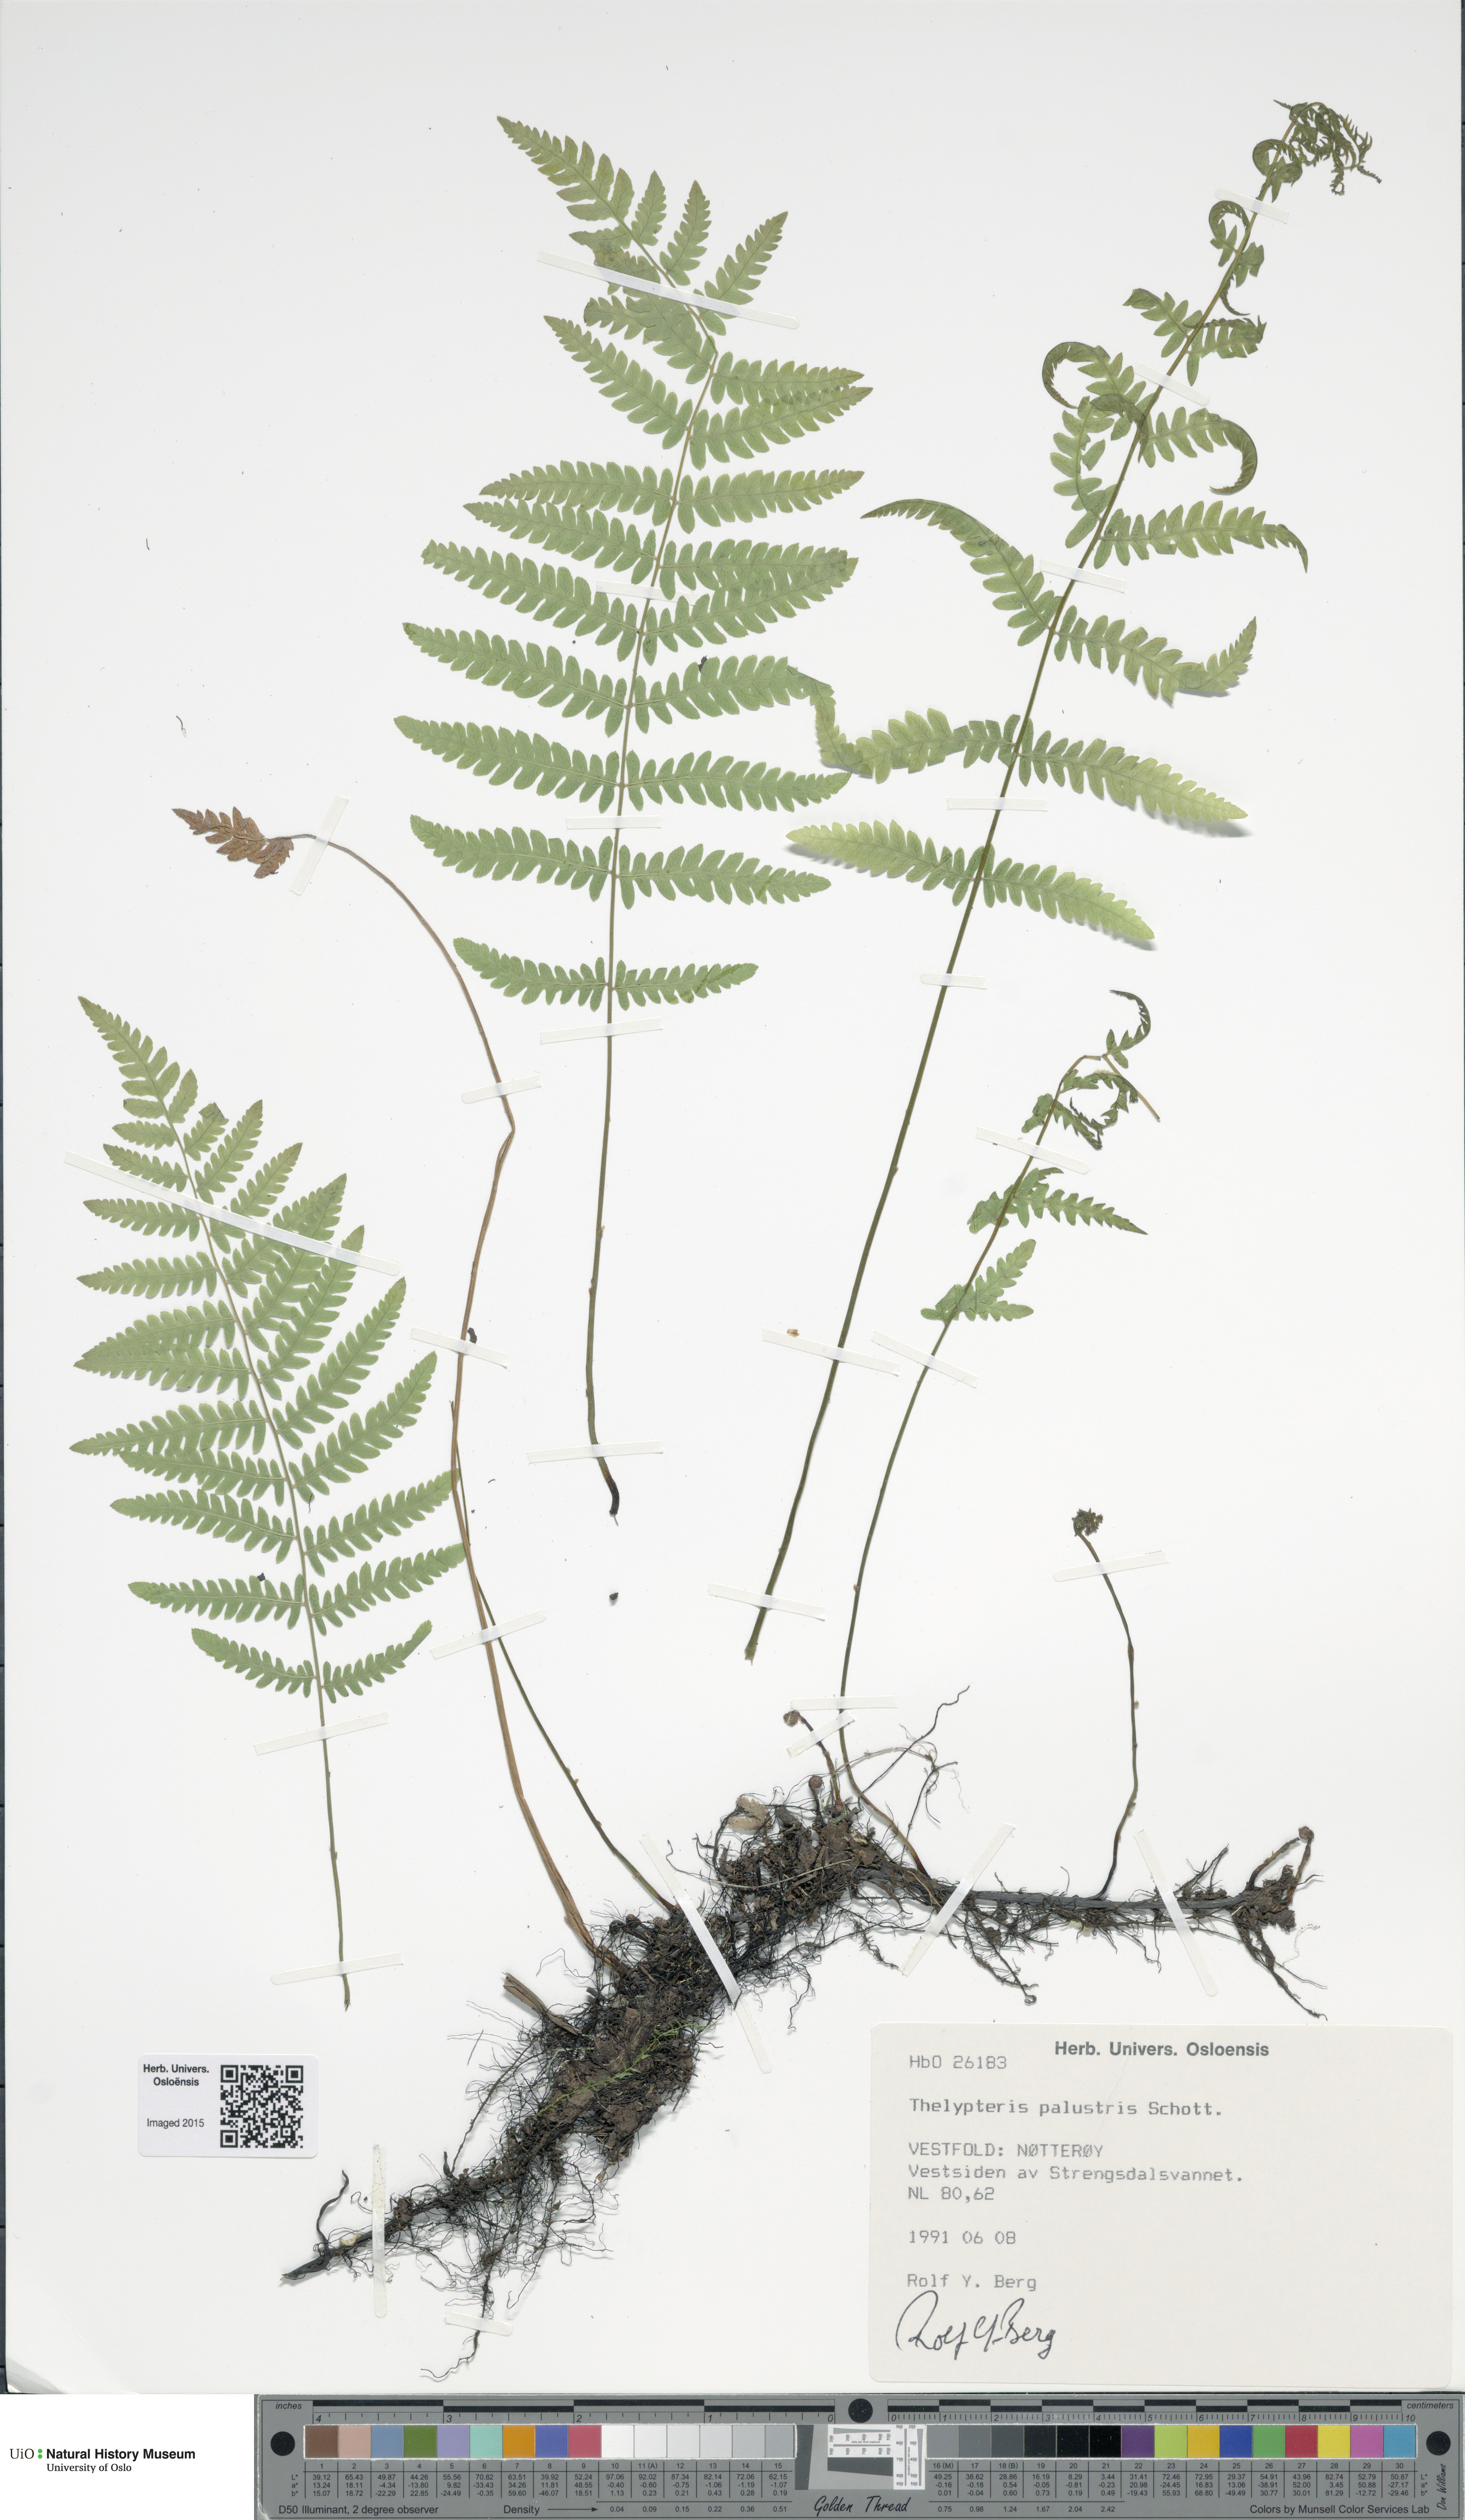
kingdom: Plantae
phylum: Tracheophyta
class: Polypodiopsida
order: Polypodiales
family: Thelypteridaceae
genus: Thelypteris
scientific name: Thelypteris palustris
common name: Marsh fern
